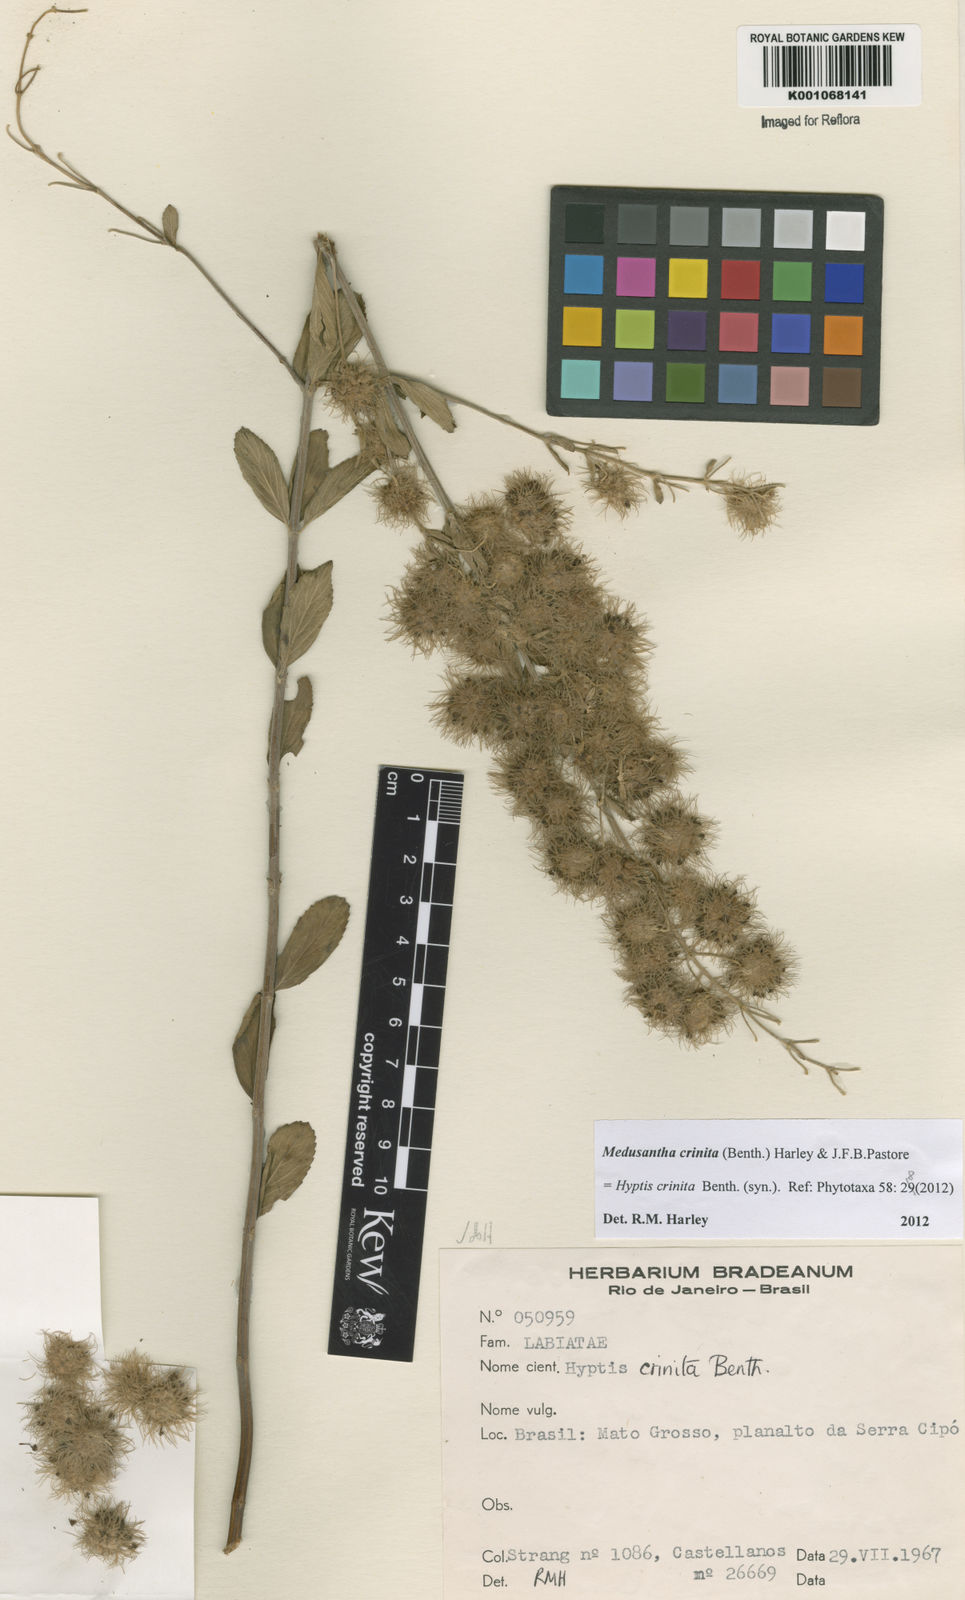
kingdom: Plantae
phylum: Tracheophyta
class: Magnoliopsida
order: Lamiales
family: Lamiaceae
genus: Medusantha
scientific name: Medusantha crinita
